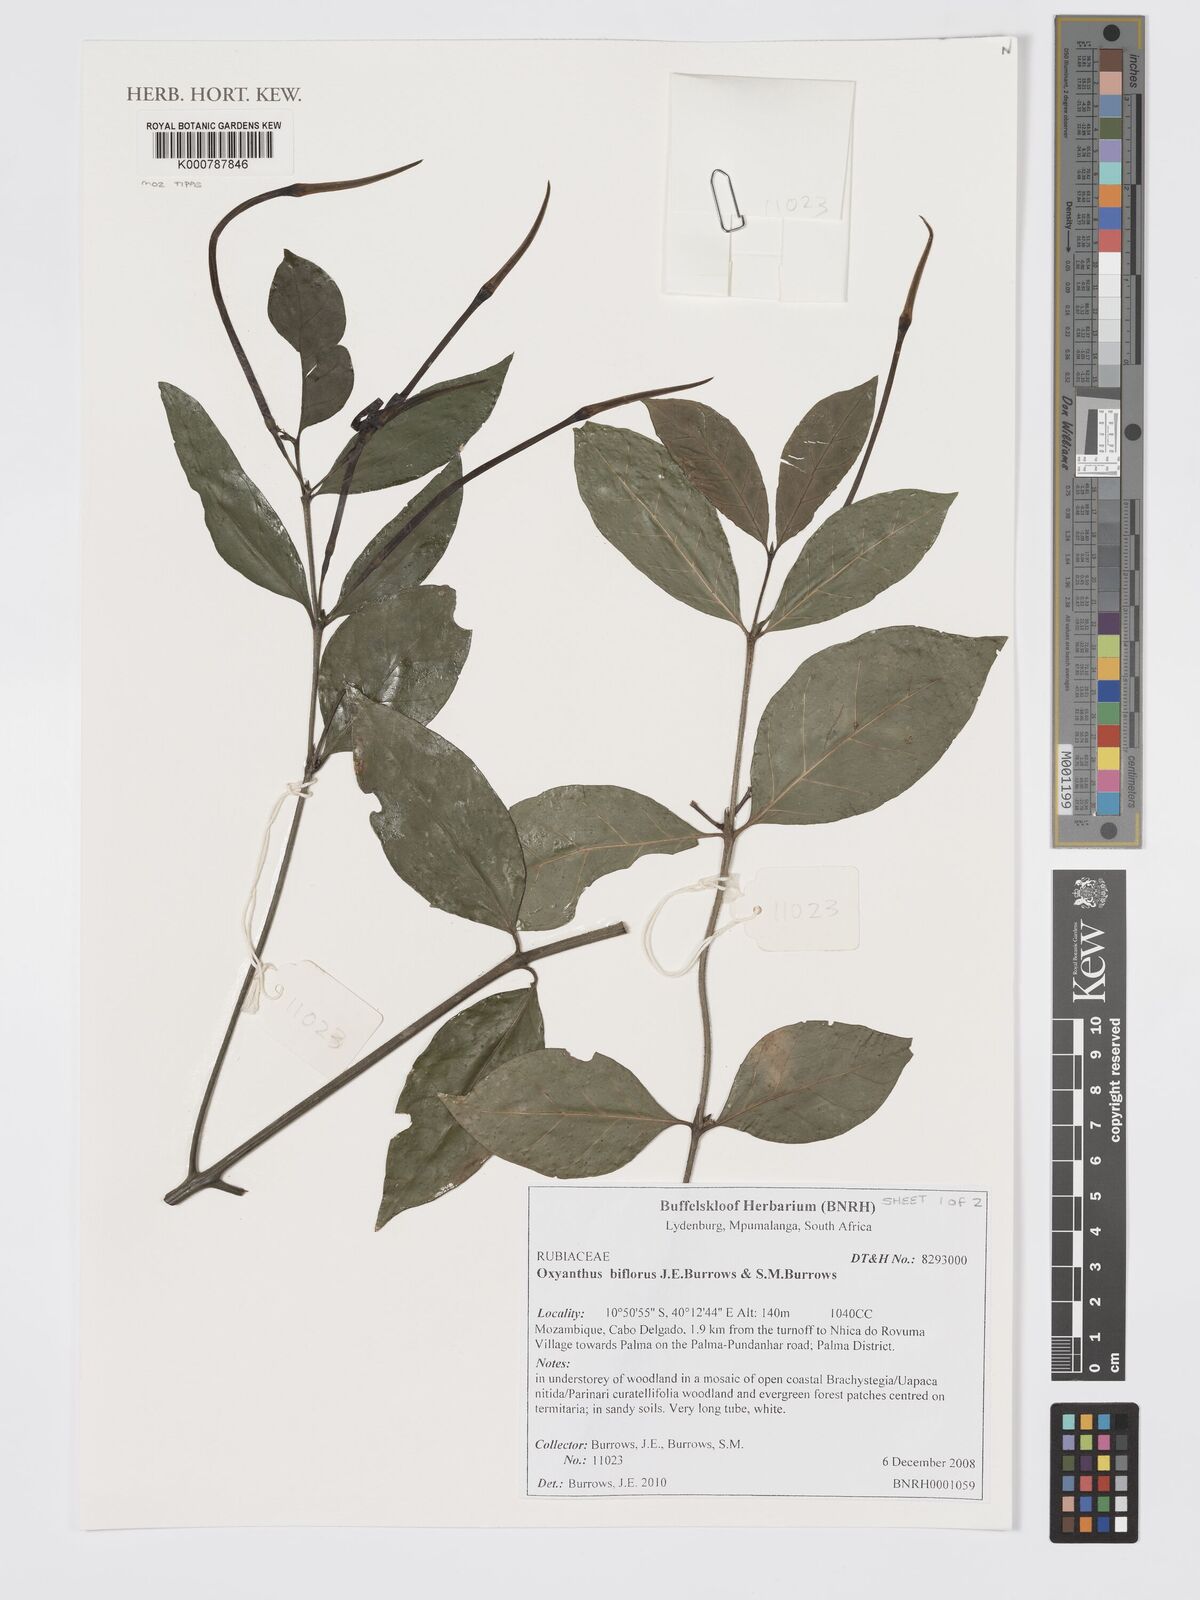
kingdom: Plantae
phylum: Tracheophyta
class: Magnoliopsida
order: Gentianales
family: Rubiaceae
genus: Oxyanthus
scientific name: Oxyanthus biflorus
